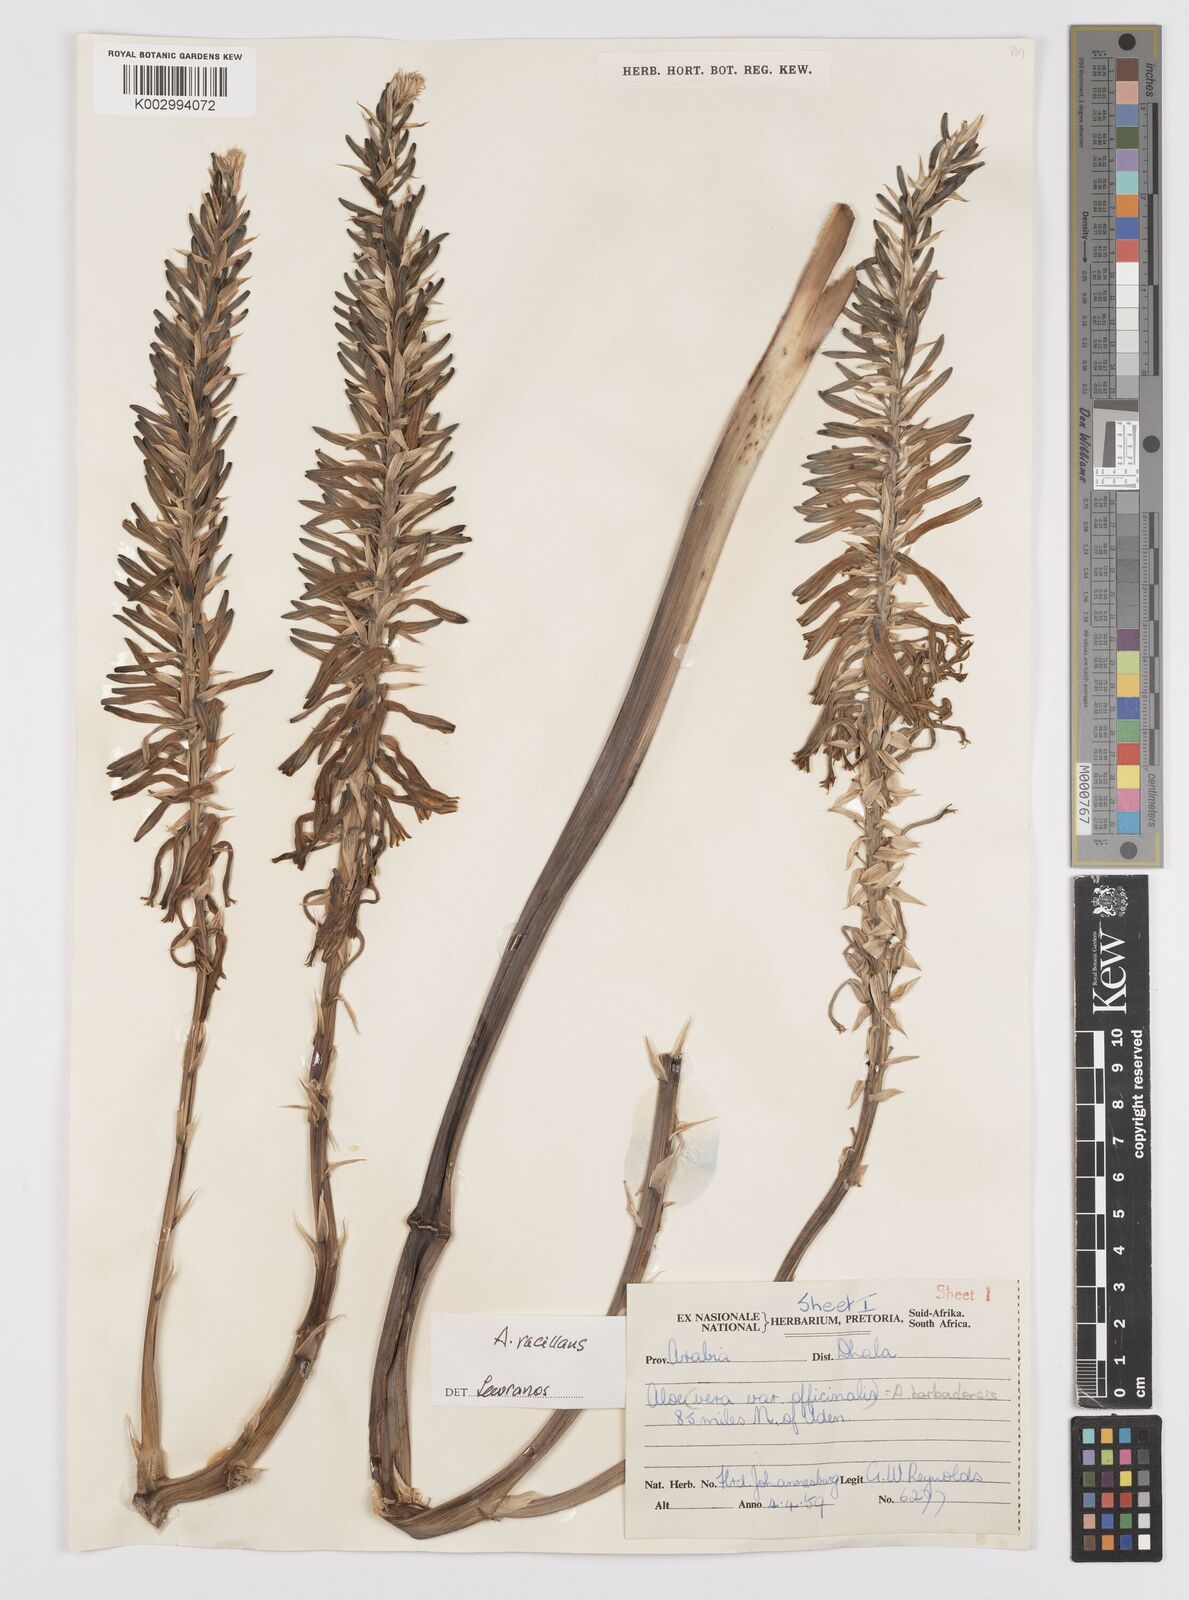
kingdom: Plantae
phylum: Tracheophyta
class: Liliopsida
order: Asparagales
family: Asphodelaceae
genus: Aloe
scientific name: Aloe officinalis
